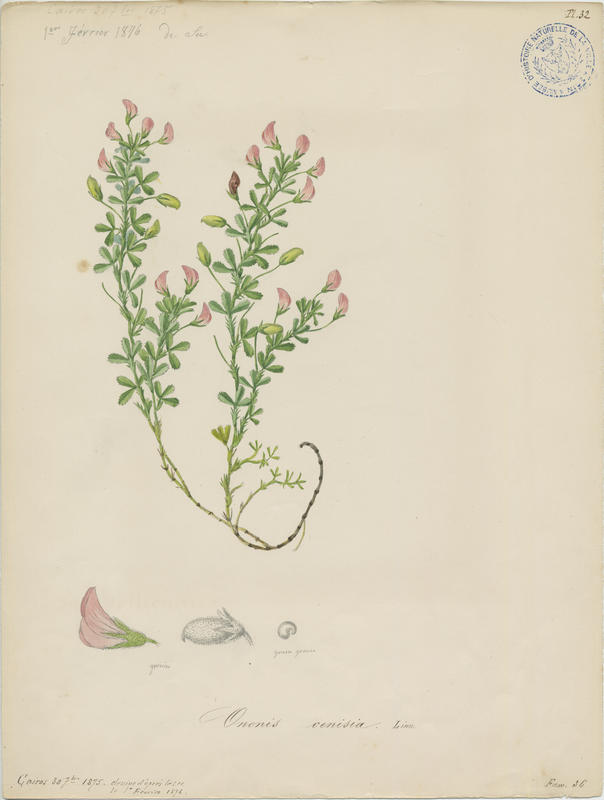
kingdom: Plantae
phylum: Tracheophyta
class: Magnoliopsida
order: Fabales
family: Fabaceae
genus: Ononis
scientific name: Ononis cristata
